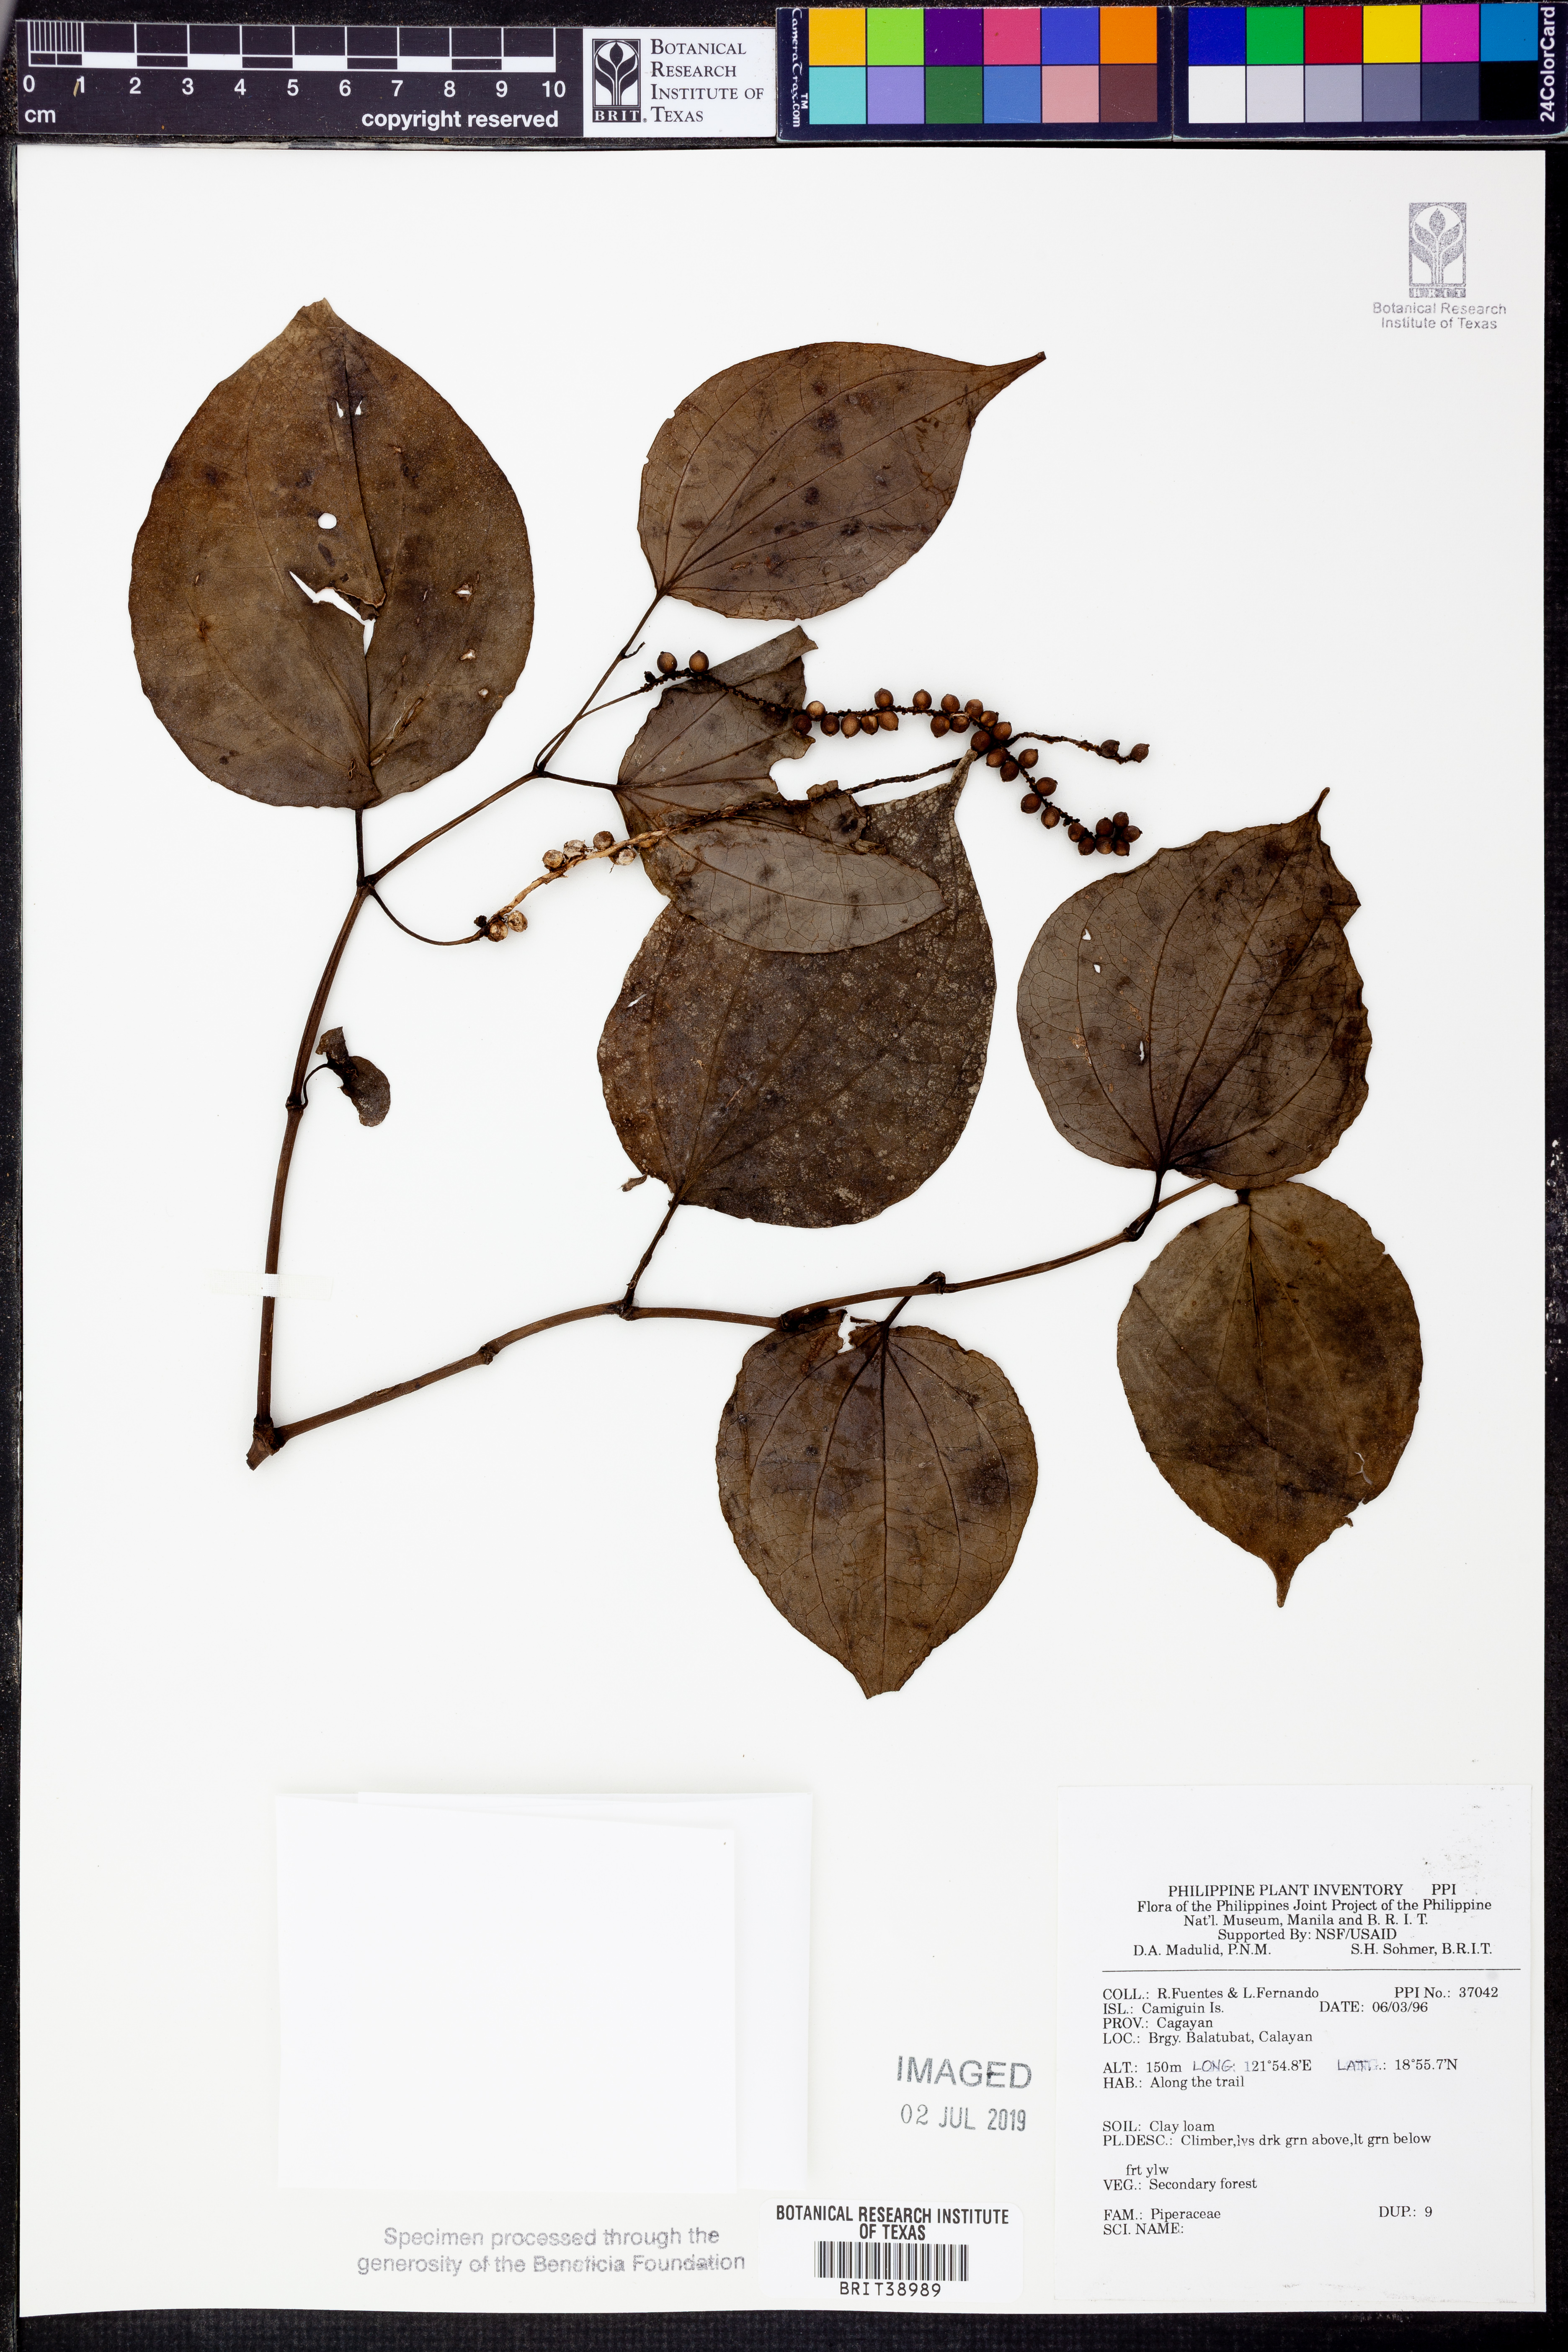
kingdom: Plantae
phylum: Tracheophyta
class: Magnoliopsida
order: Piperales
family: Piperaceae
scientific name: Piperaceae
